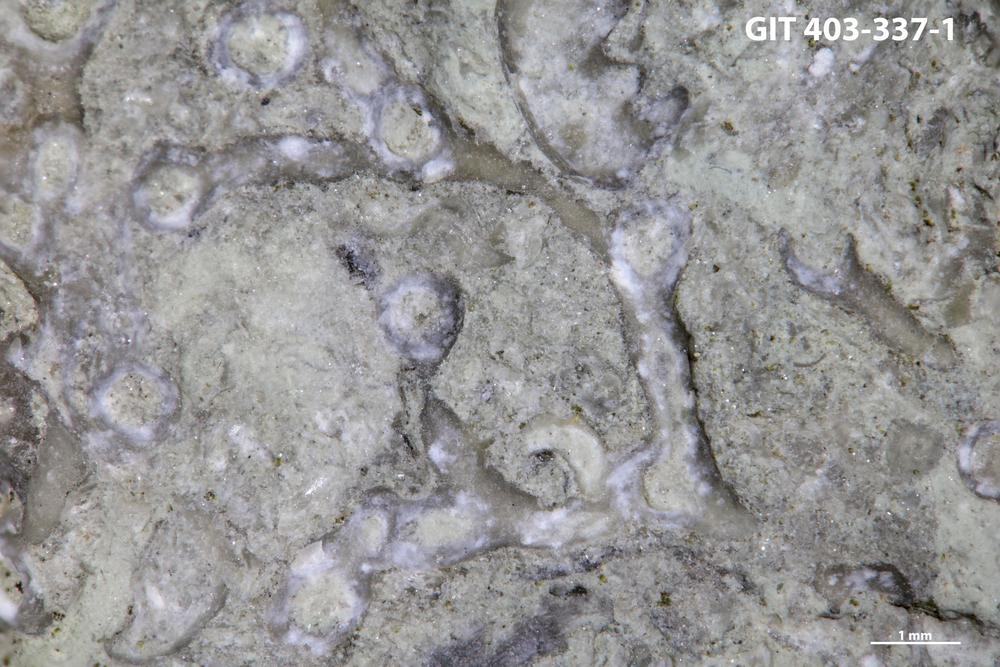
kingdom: Animalia
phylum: Cnidaria
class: Anthozoa
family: Auloporidae
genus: Aulopora
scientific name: Aulopora
